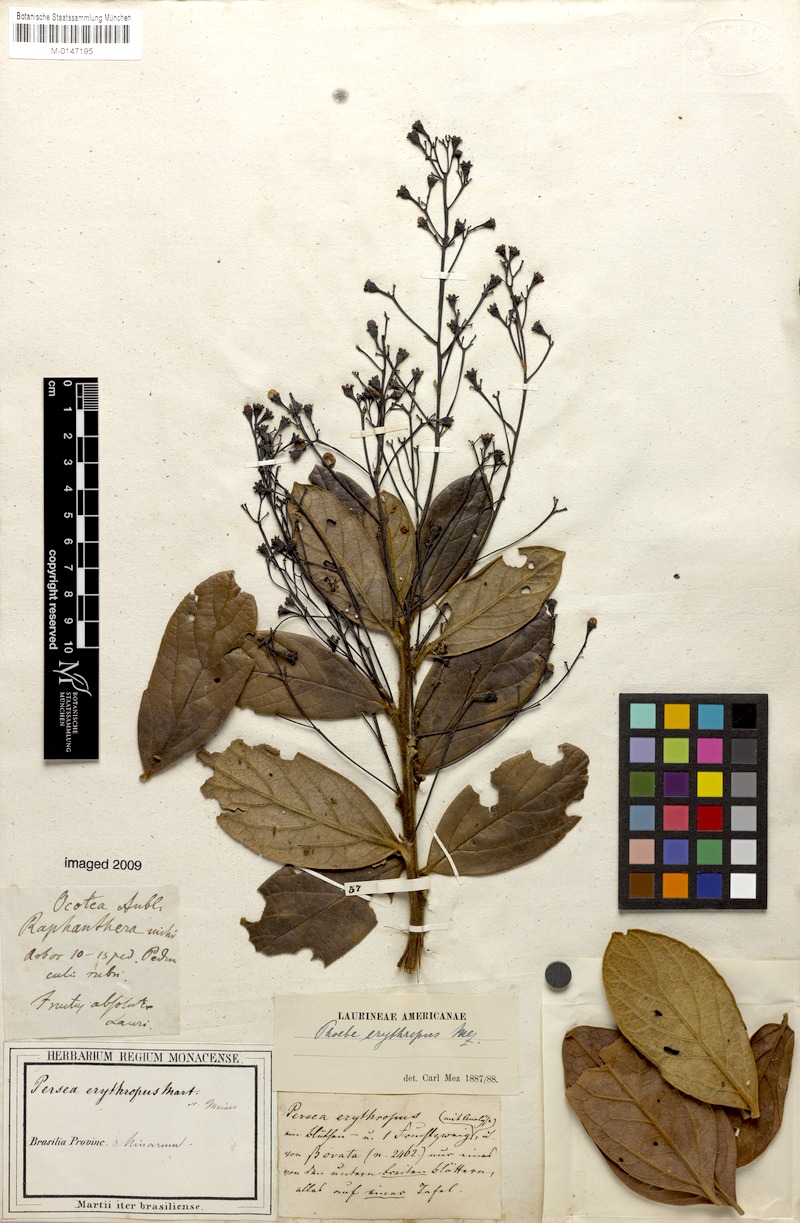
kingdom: Plantae
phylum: Tracheophyta
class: Magnoliopsida
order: Laurales
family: Lauraceae
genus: Aiouea
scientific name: Aiouea erythropus
